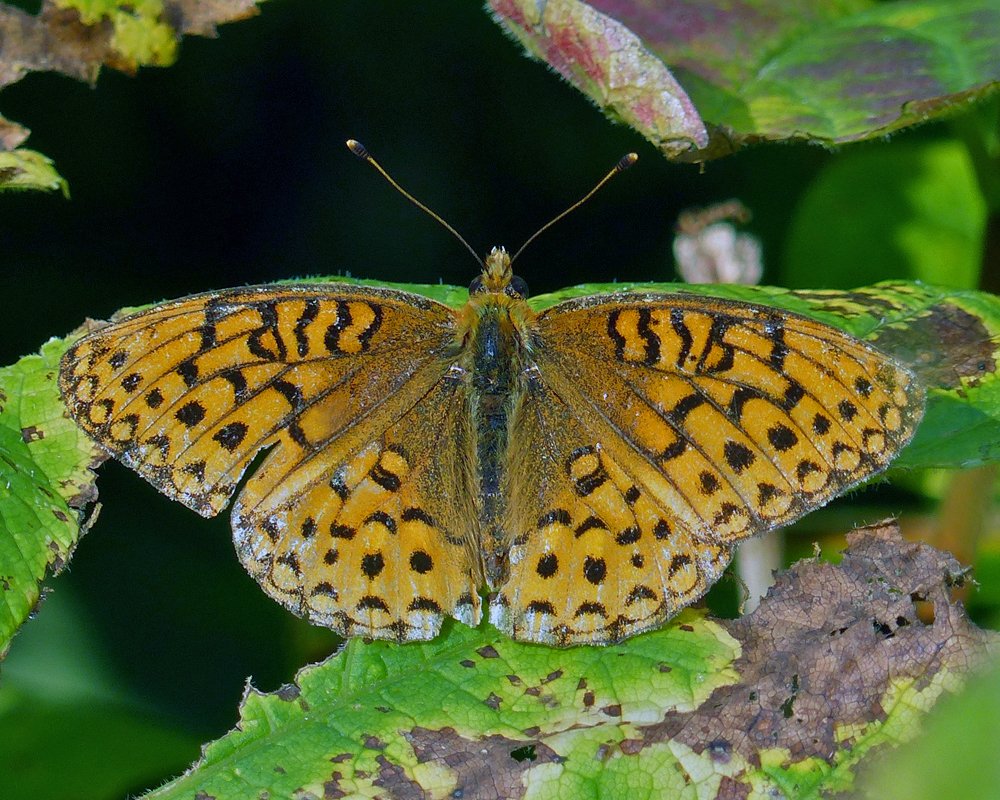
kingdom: Animalia
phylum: Arthropoda
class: Insecta
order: Lepidoptera
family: Nymphalidae
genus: Speyeria
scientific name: Speyeria atlantis
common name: Northwestern Fritillary
